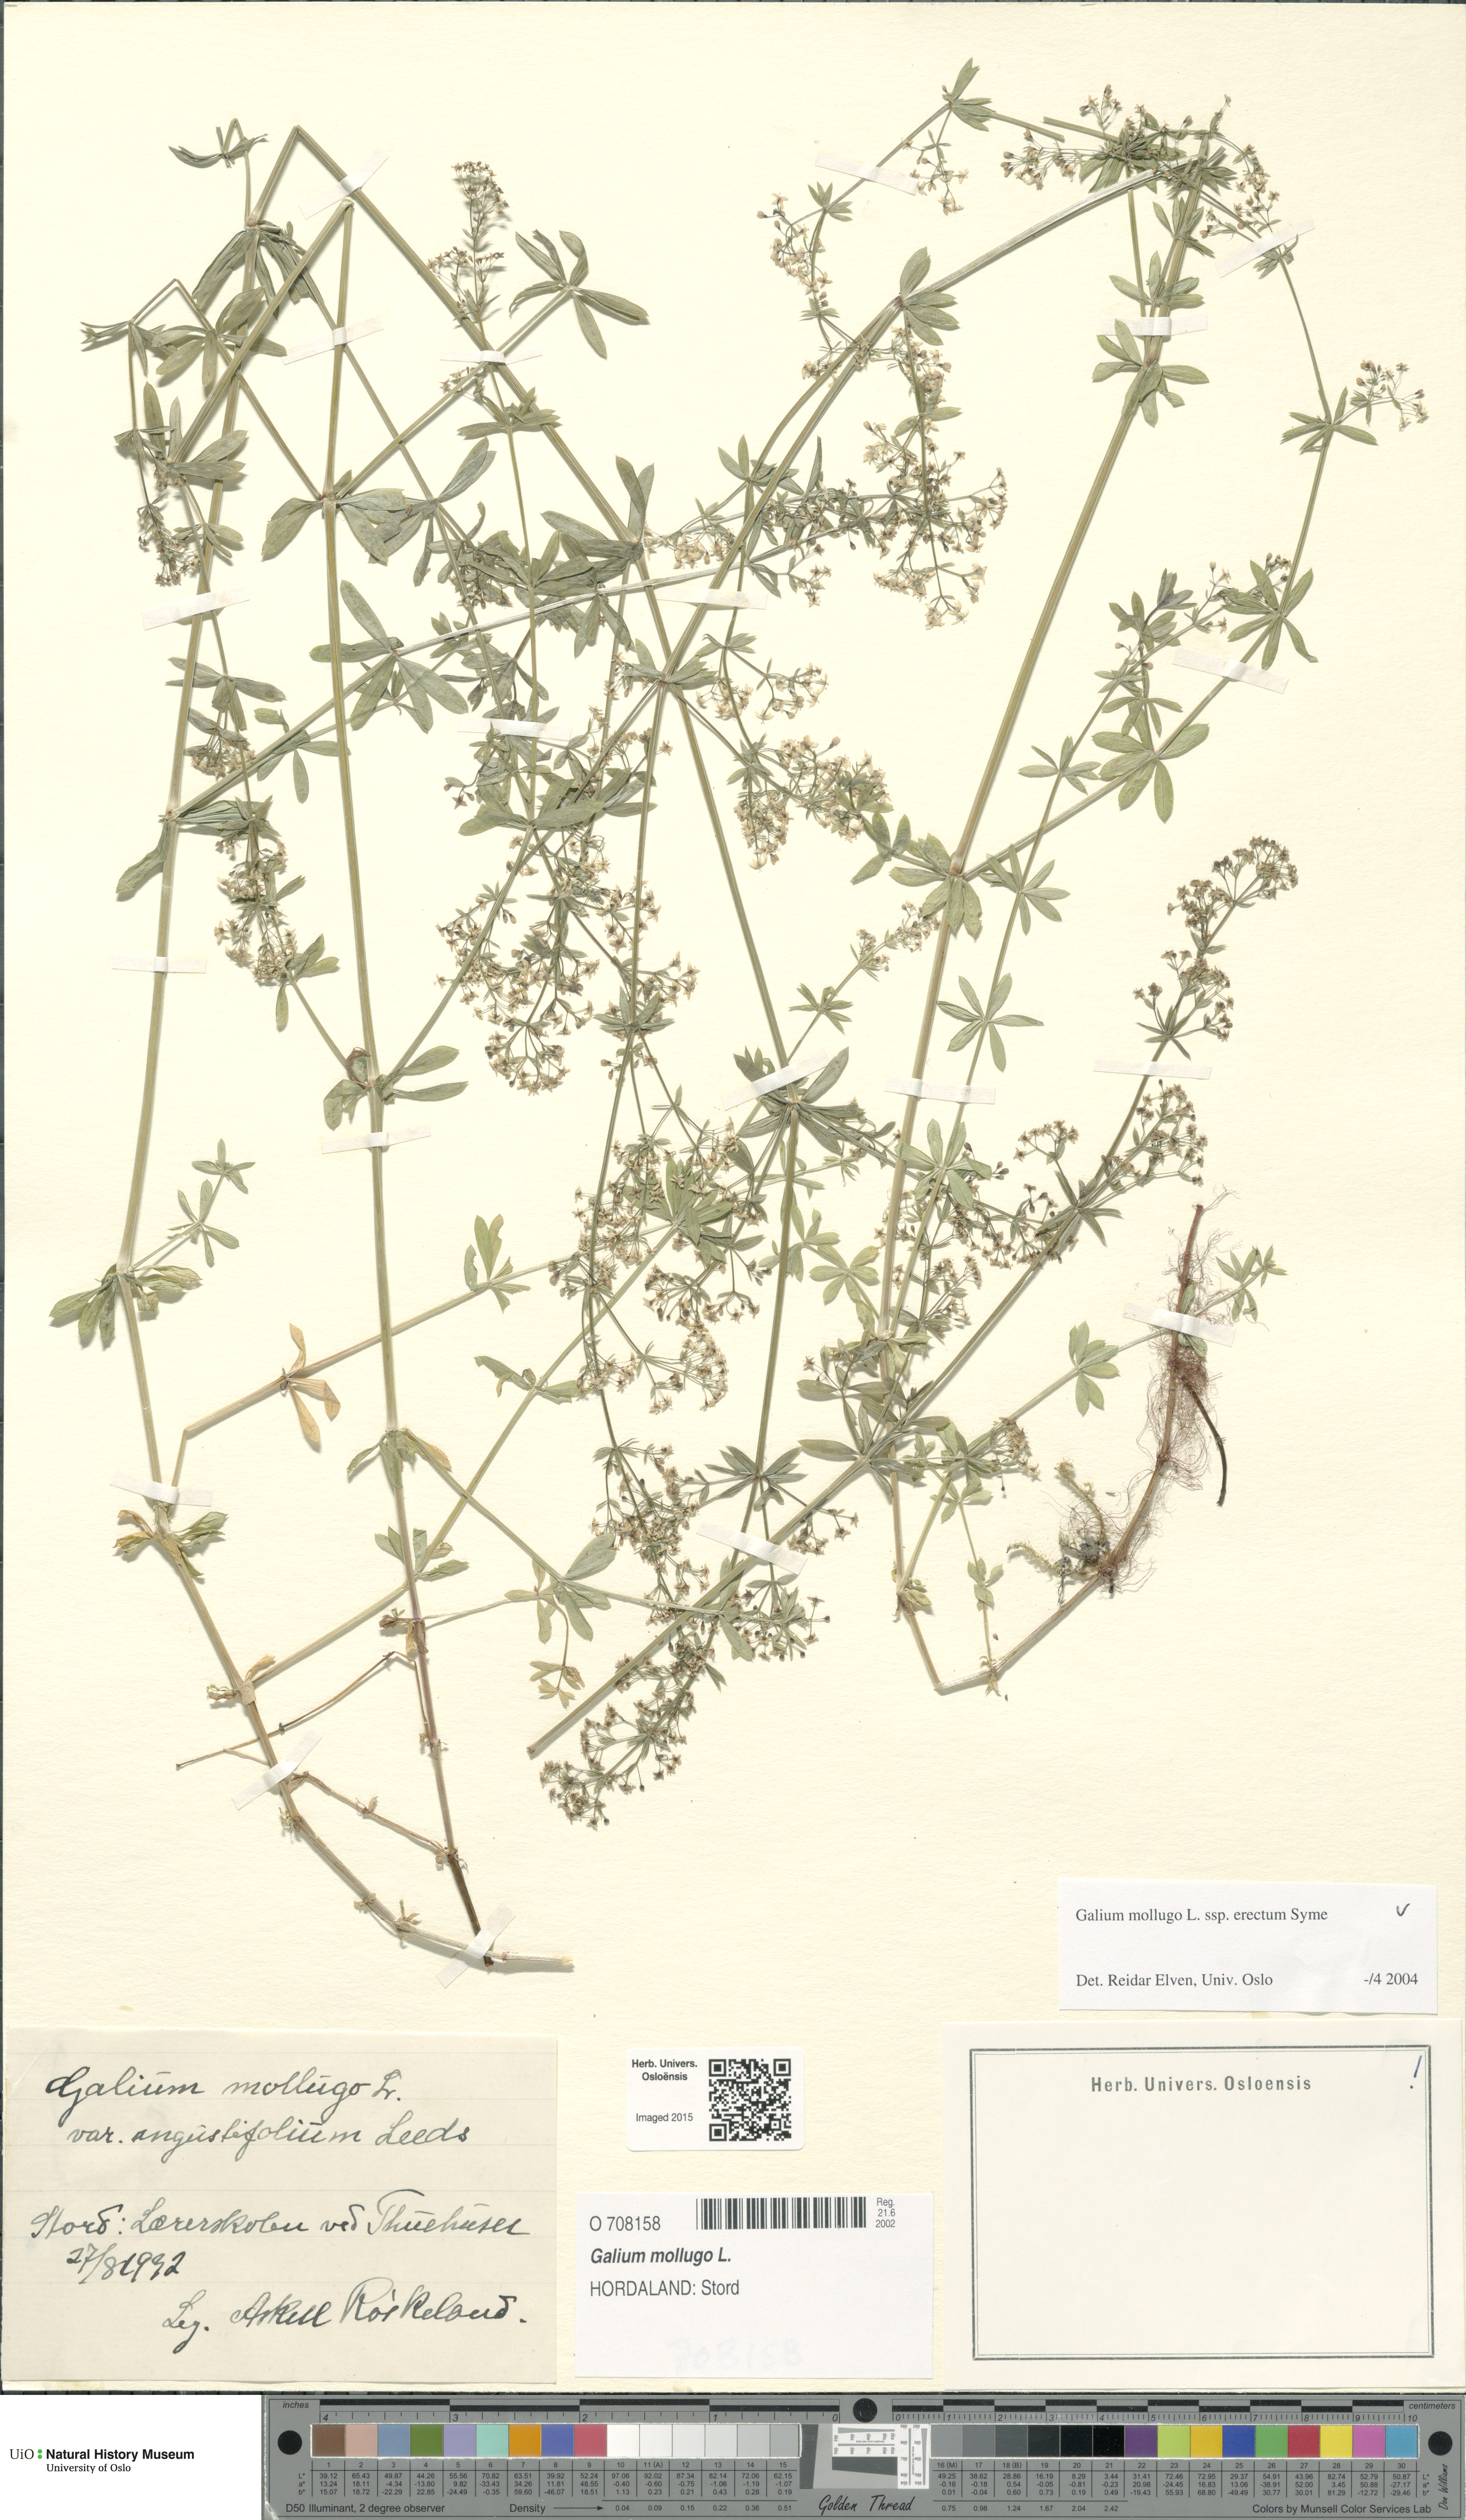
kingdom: Plantae
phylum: Tracheophyta
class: Magnoliopsida
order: Gentianales
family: Rubiaceae
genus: Galium
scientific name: Galium album
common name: White bedstraw
